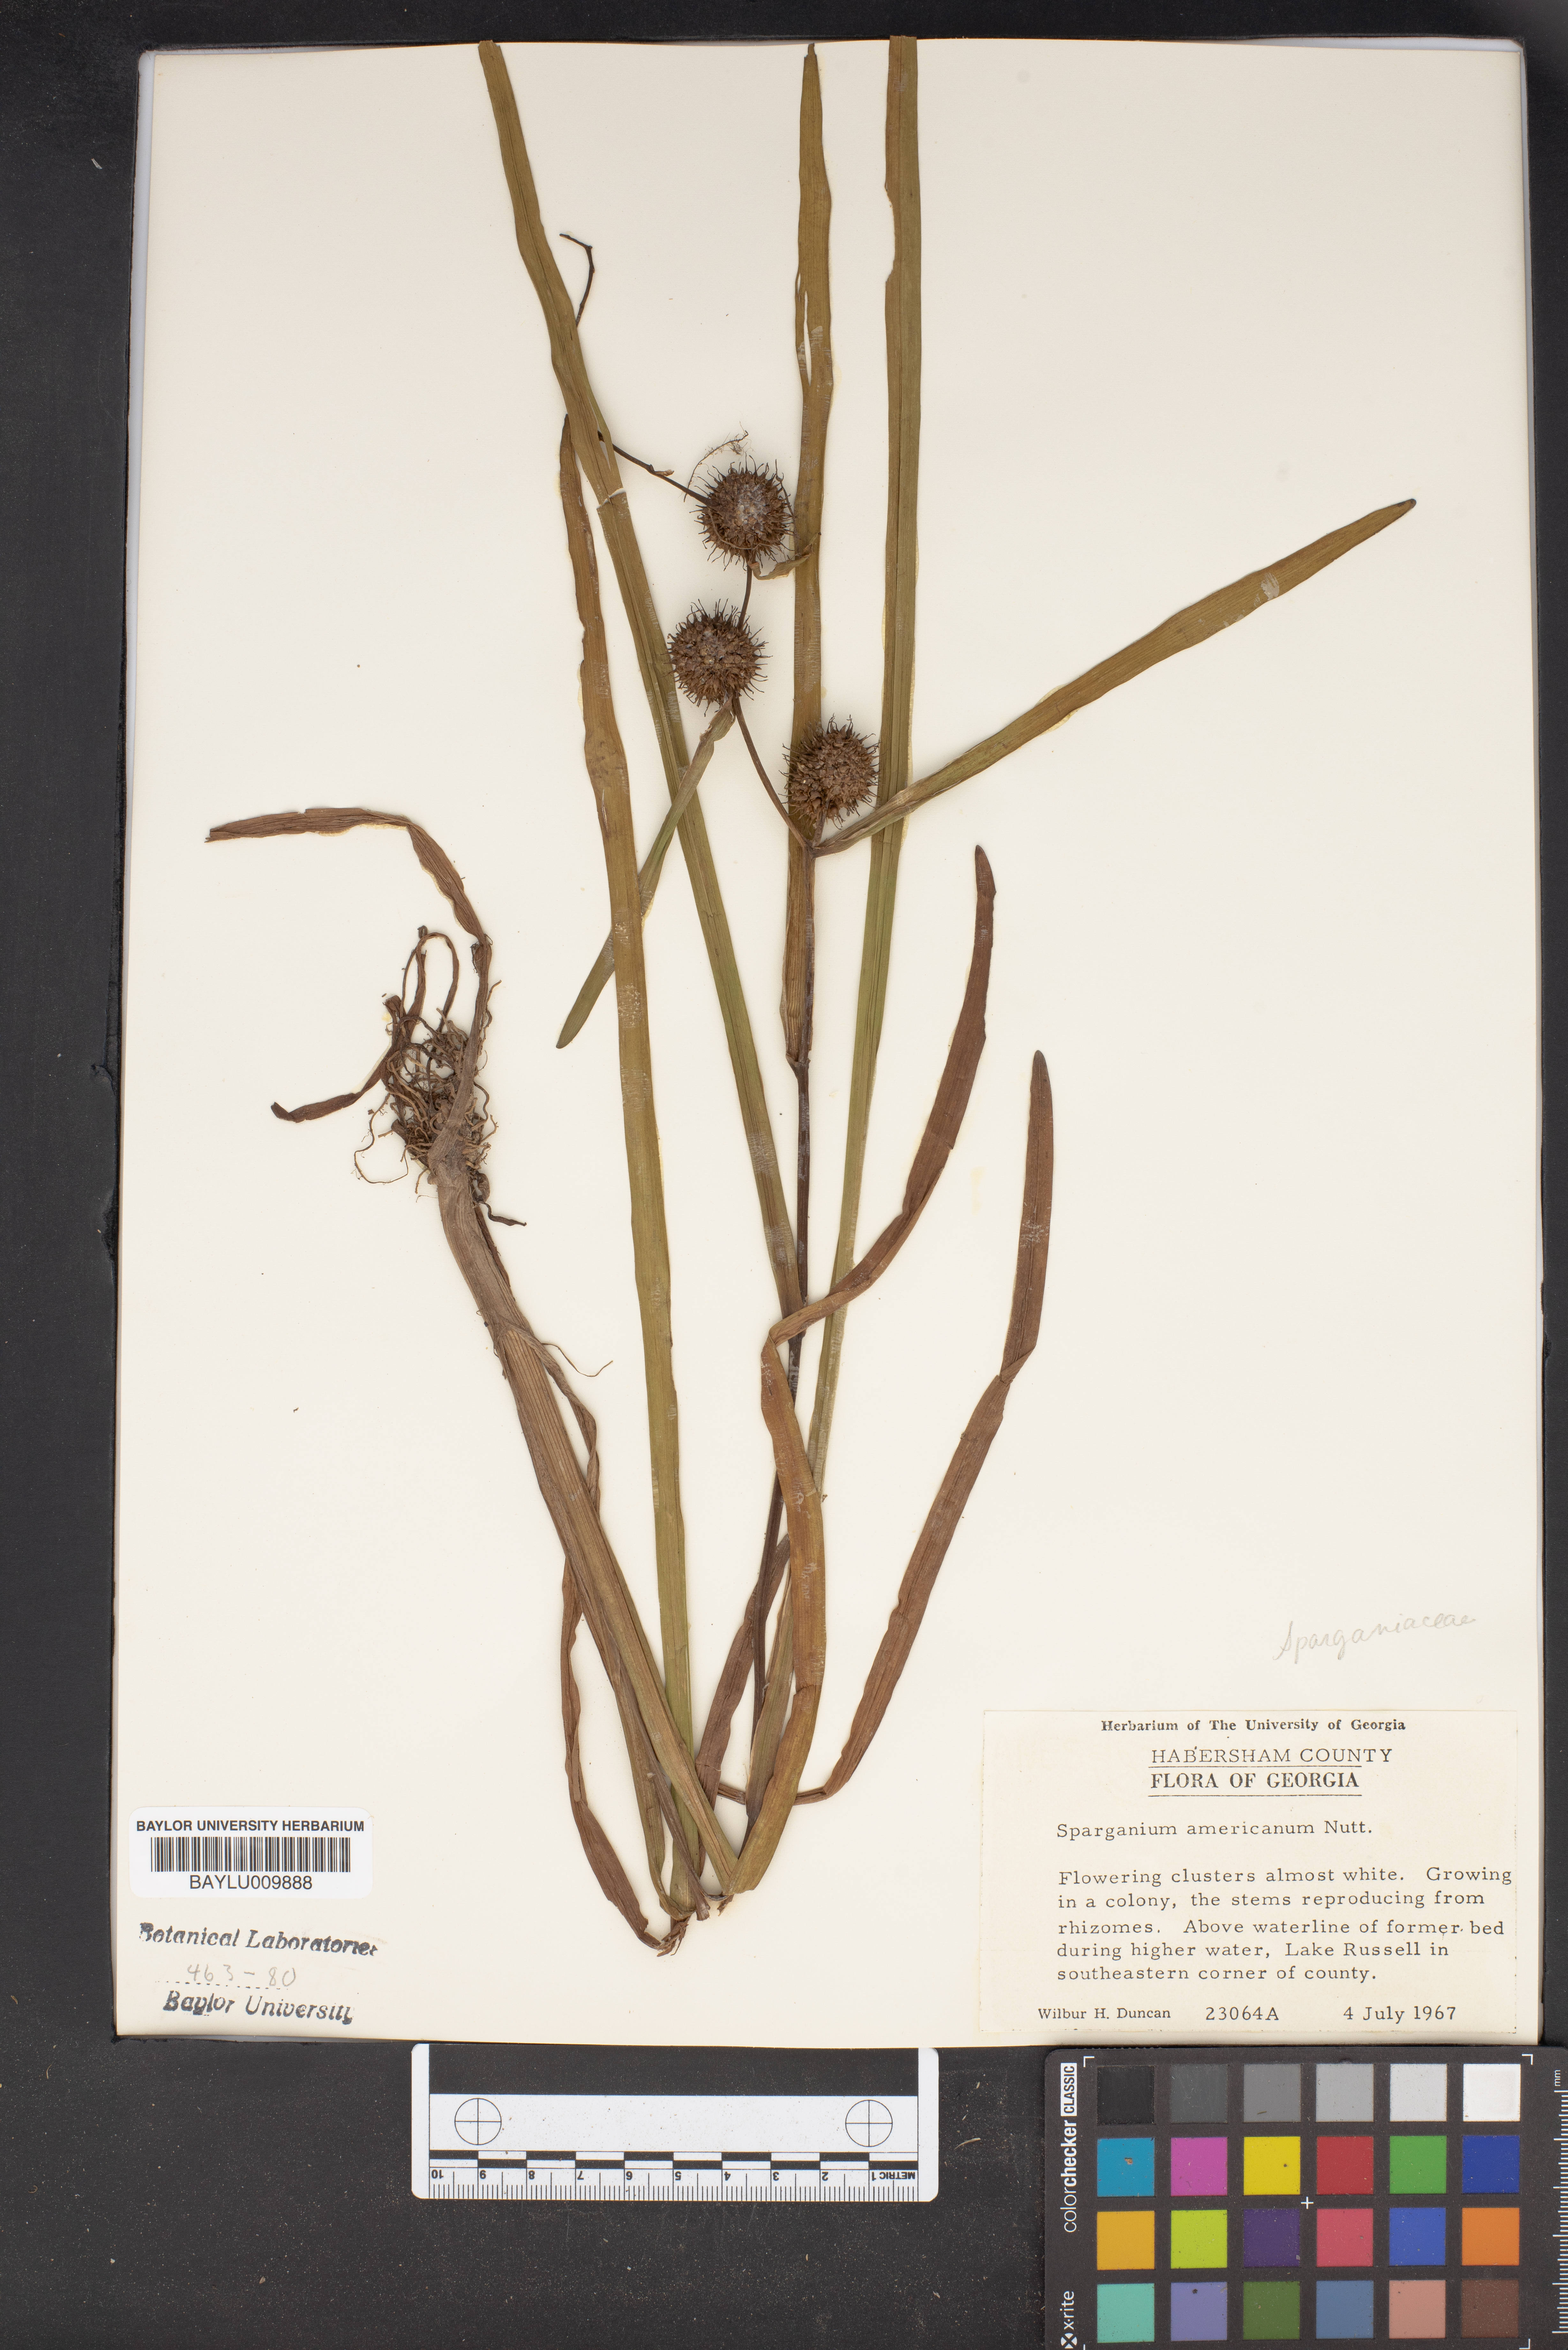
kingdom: Plantae
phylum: Tracheophyta
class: Liliopsida
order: Poales
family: Typhaceae
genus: Sparganium
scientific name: Sparganium americanum
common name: American burreed
